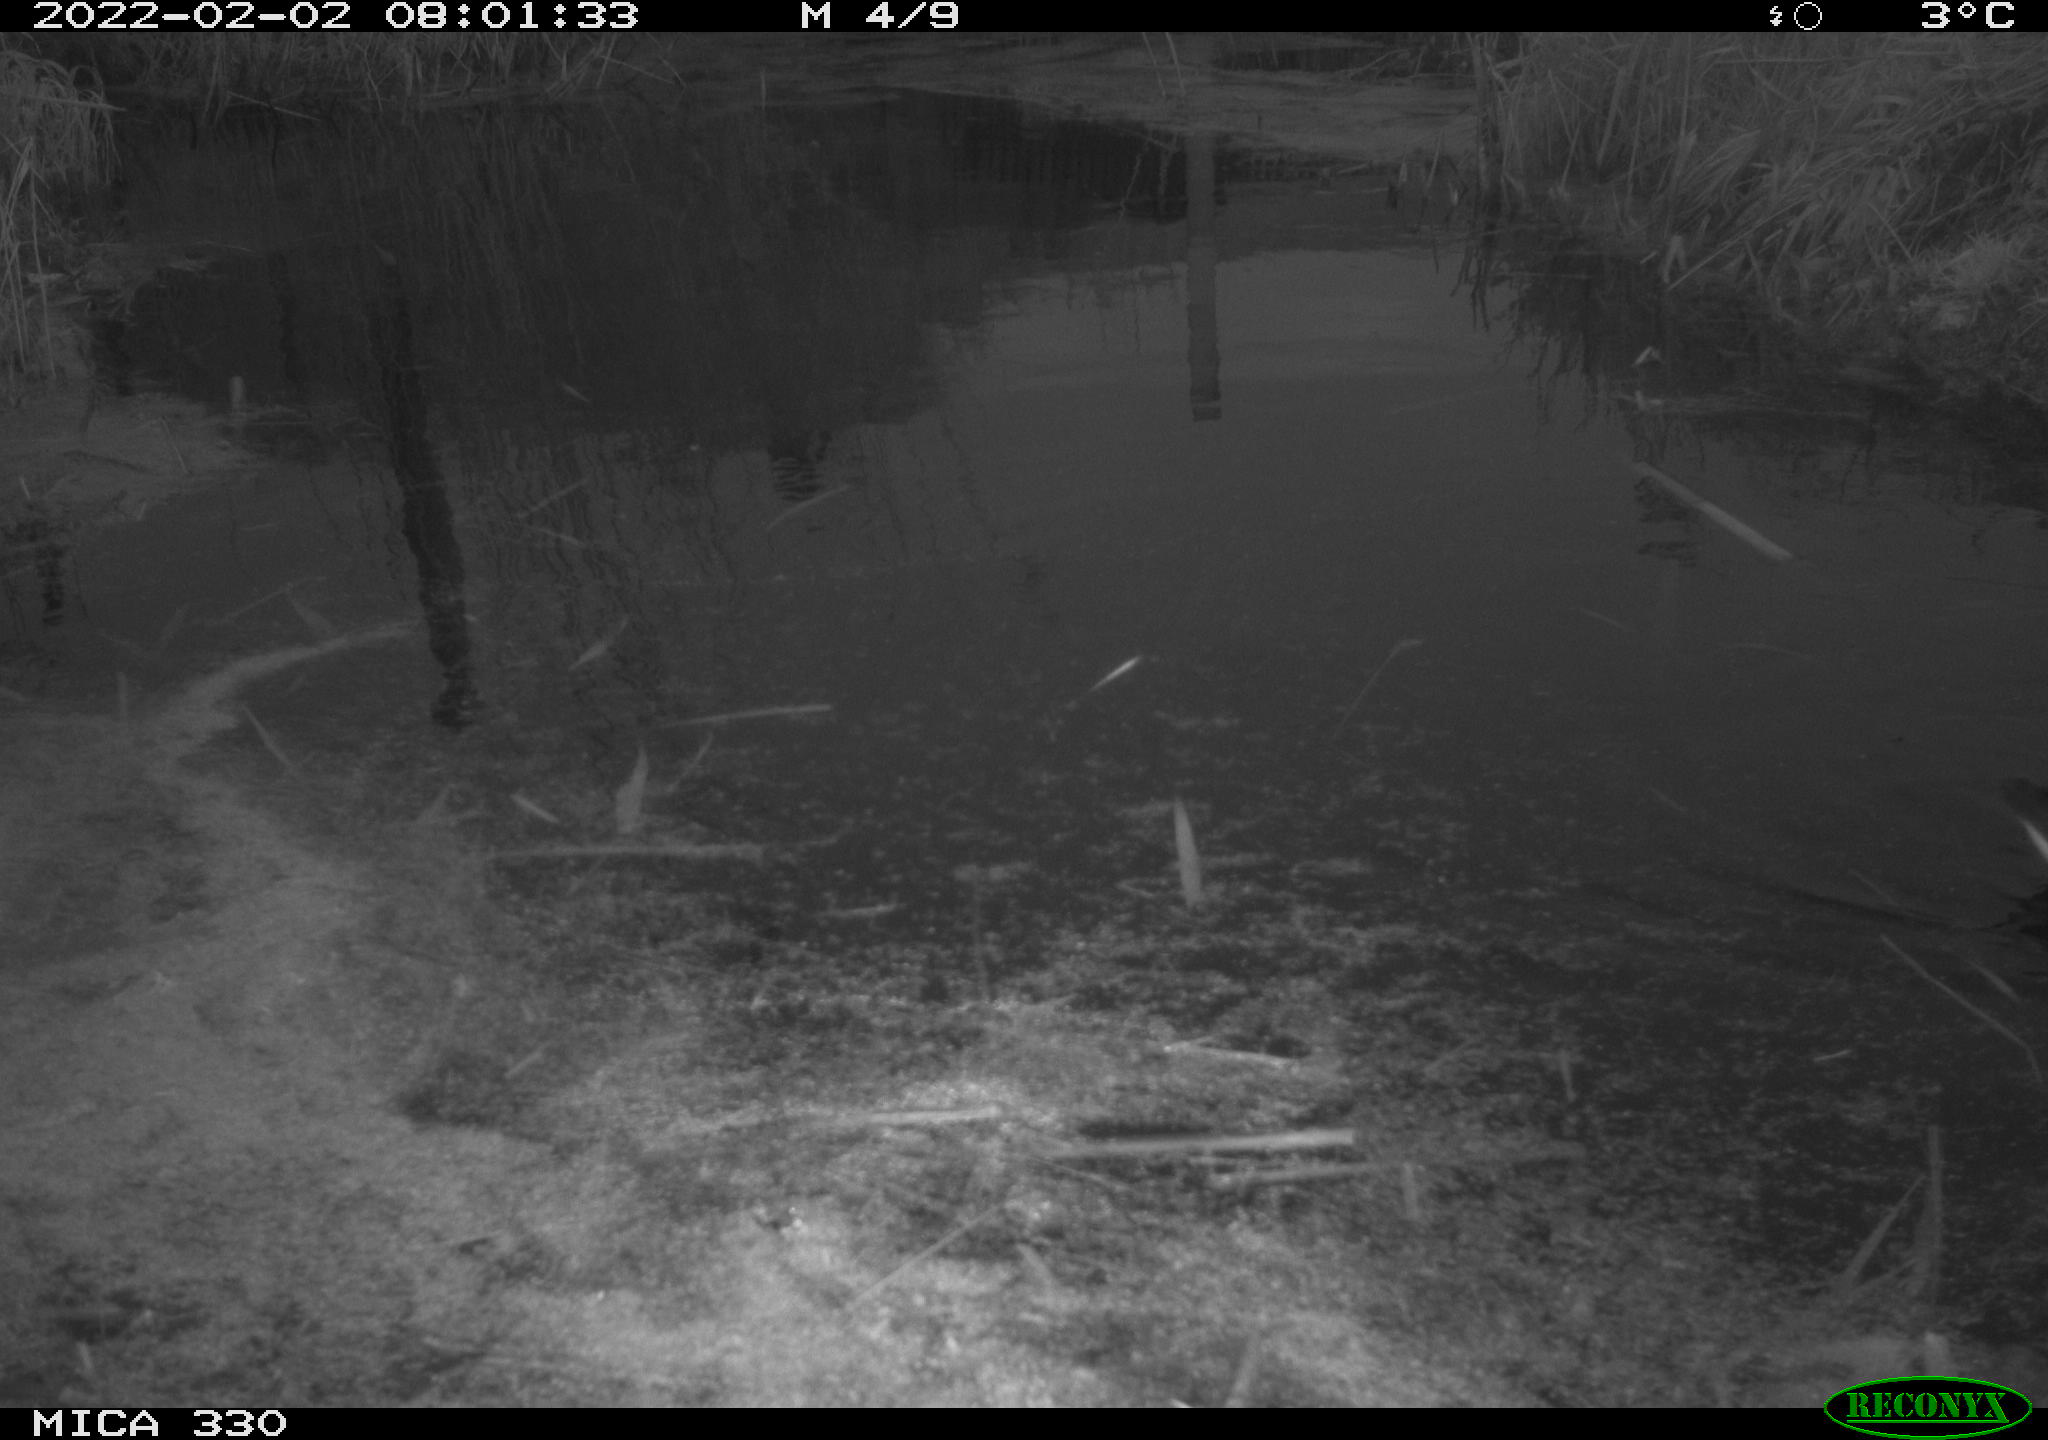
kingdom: Animalia
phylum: Chordata
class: Aves
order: Gruiformes
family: Rallidae
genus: Gallinula
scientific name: Gallinula chloropus
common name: Common moorhen
